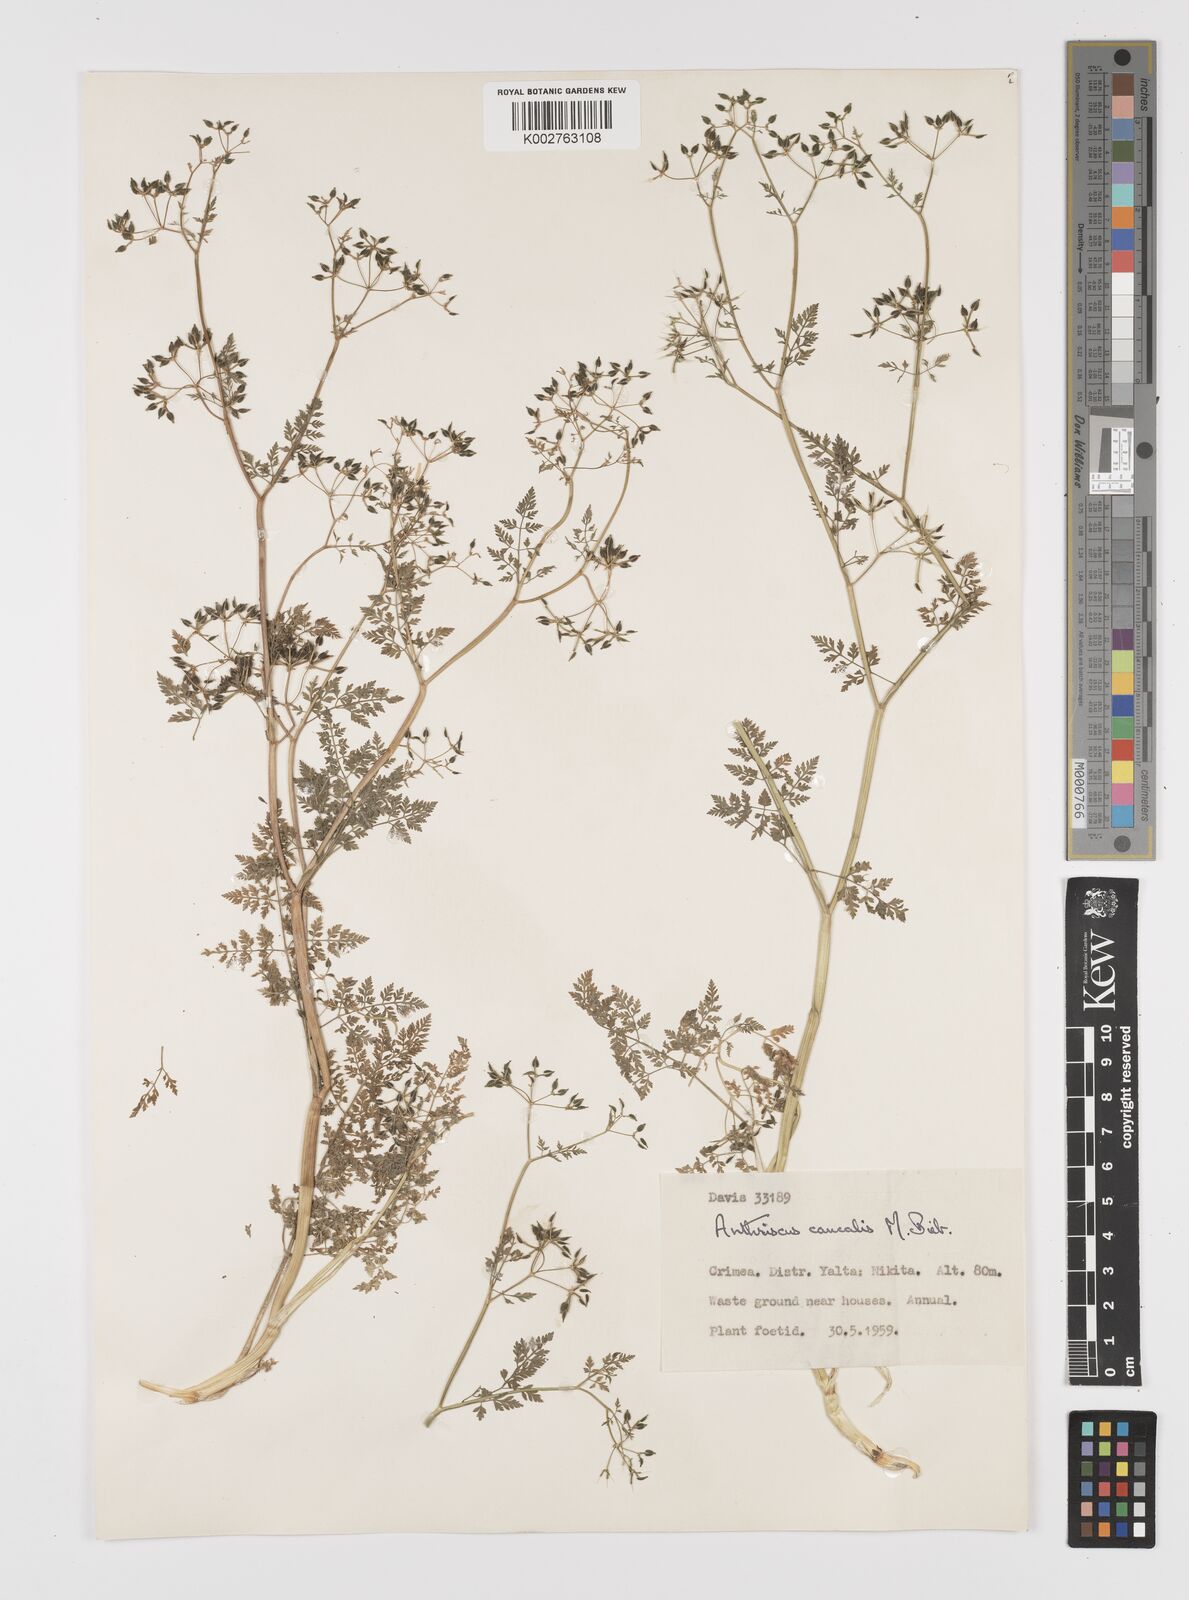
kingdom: Plantae
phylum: Tracheophyta
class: Magnoliopsida
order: Apiales
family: Apiaceae
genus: Anthriscus
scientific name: Anthriscus caucalis
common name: Bur chervil
